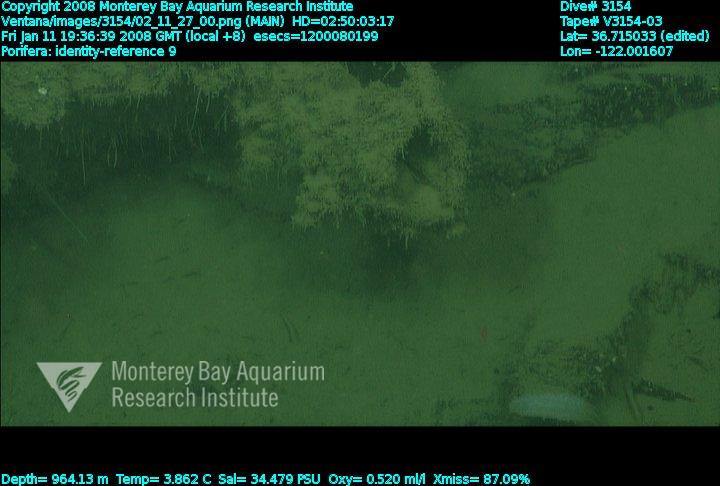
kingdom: Animalia
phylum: Porifera
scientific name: Porifera
